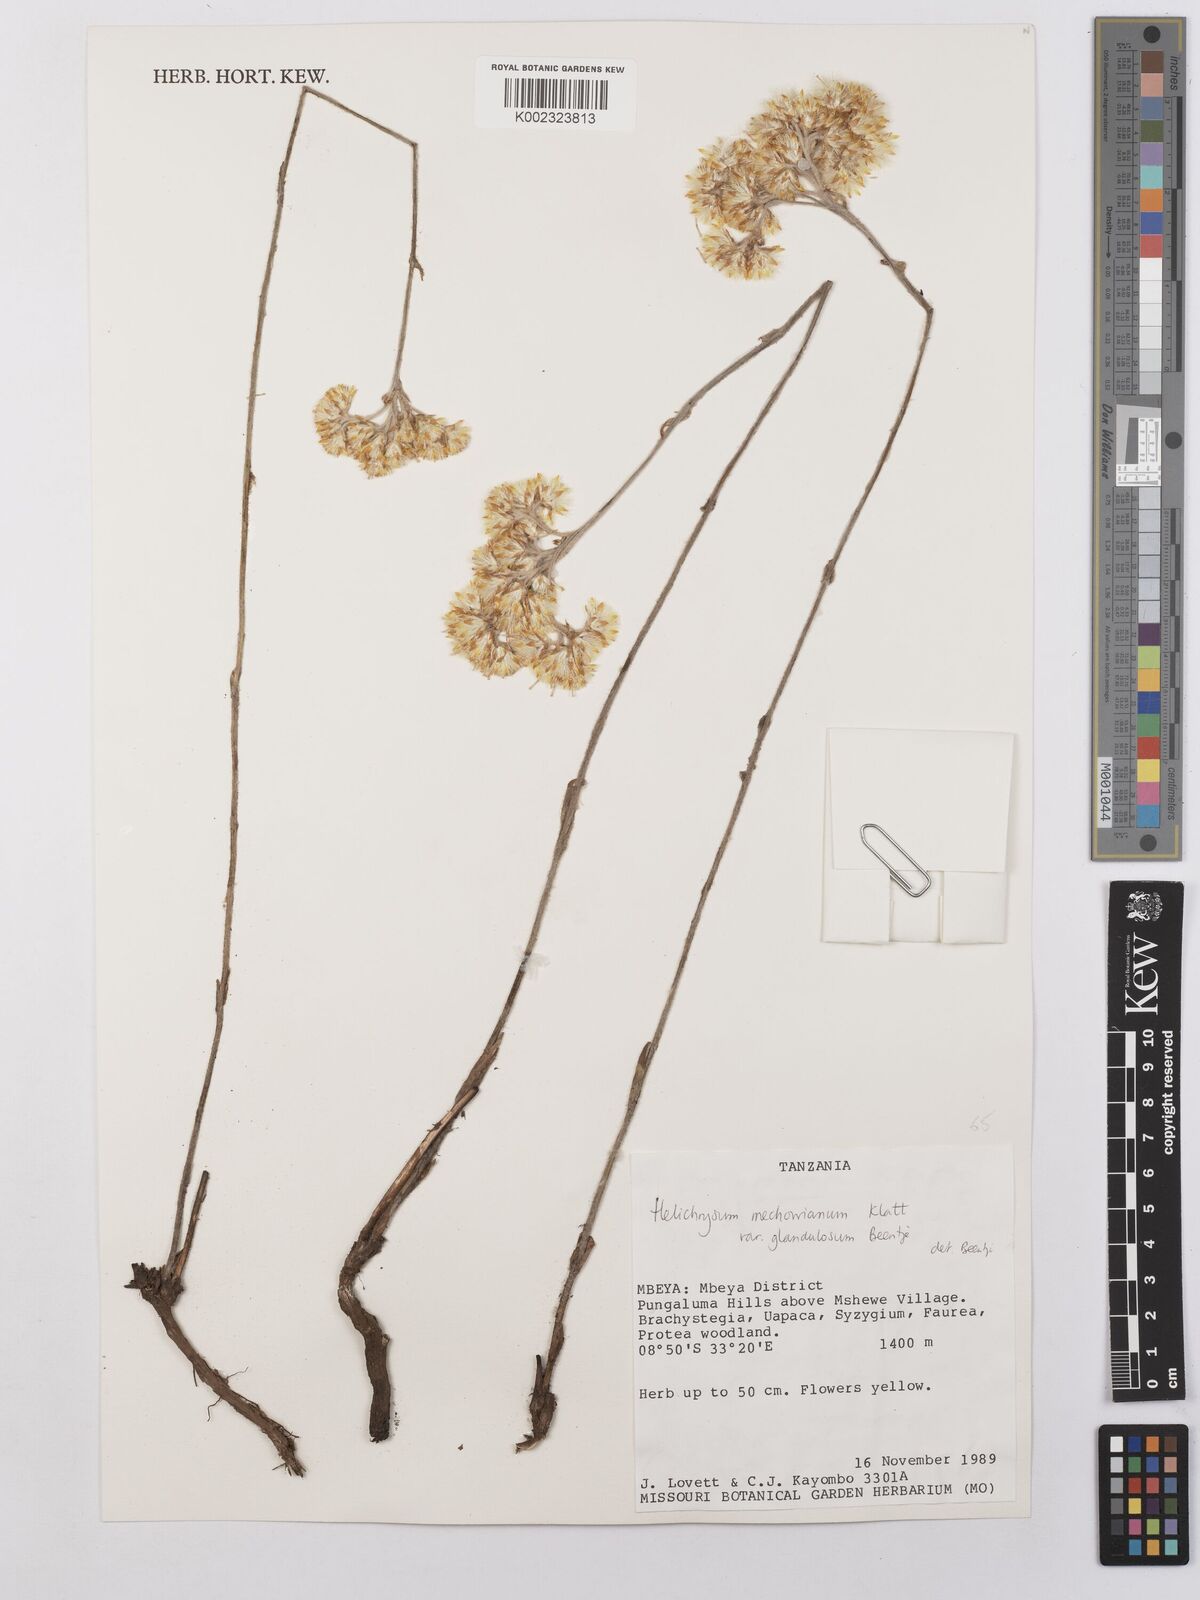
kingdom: Plantae
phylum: Tracheophyta
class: Magnoliopsida
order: Asterales
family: Asteraceae
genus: Helichrysum
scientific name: Helichrysum mechowianum
